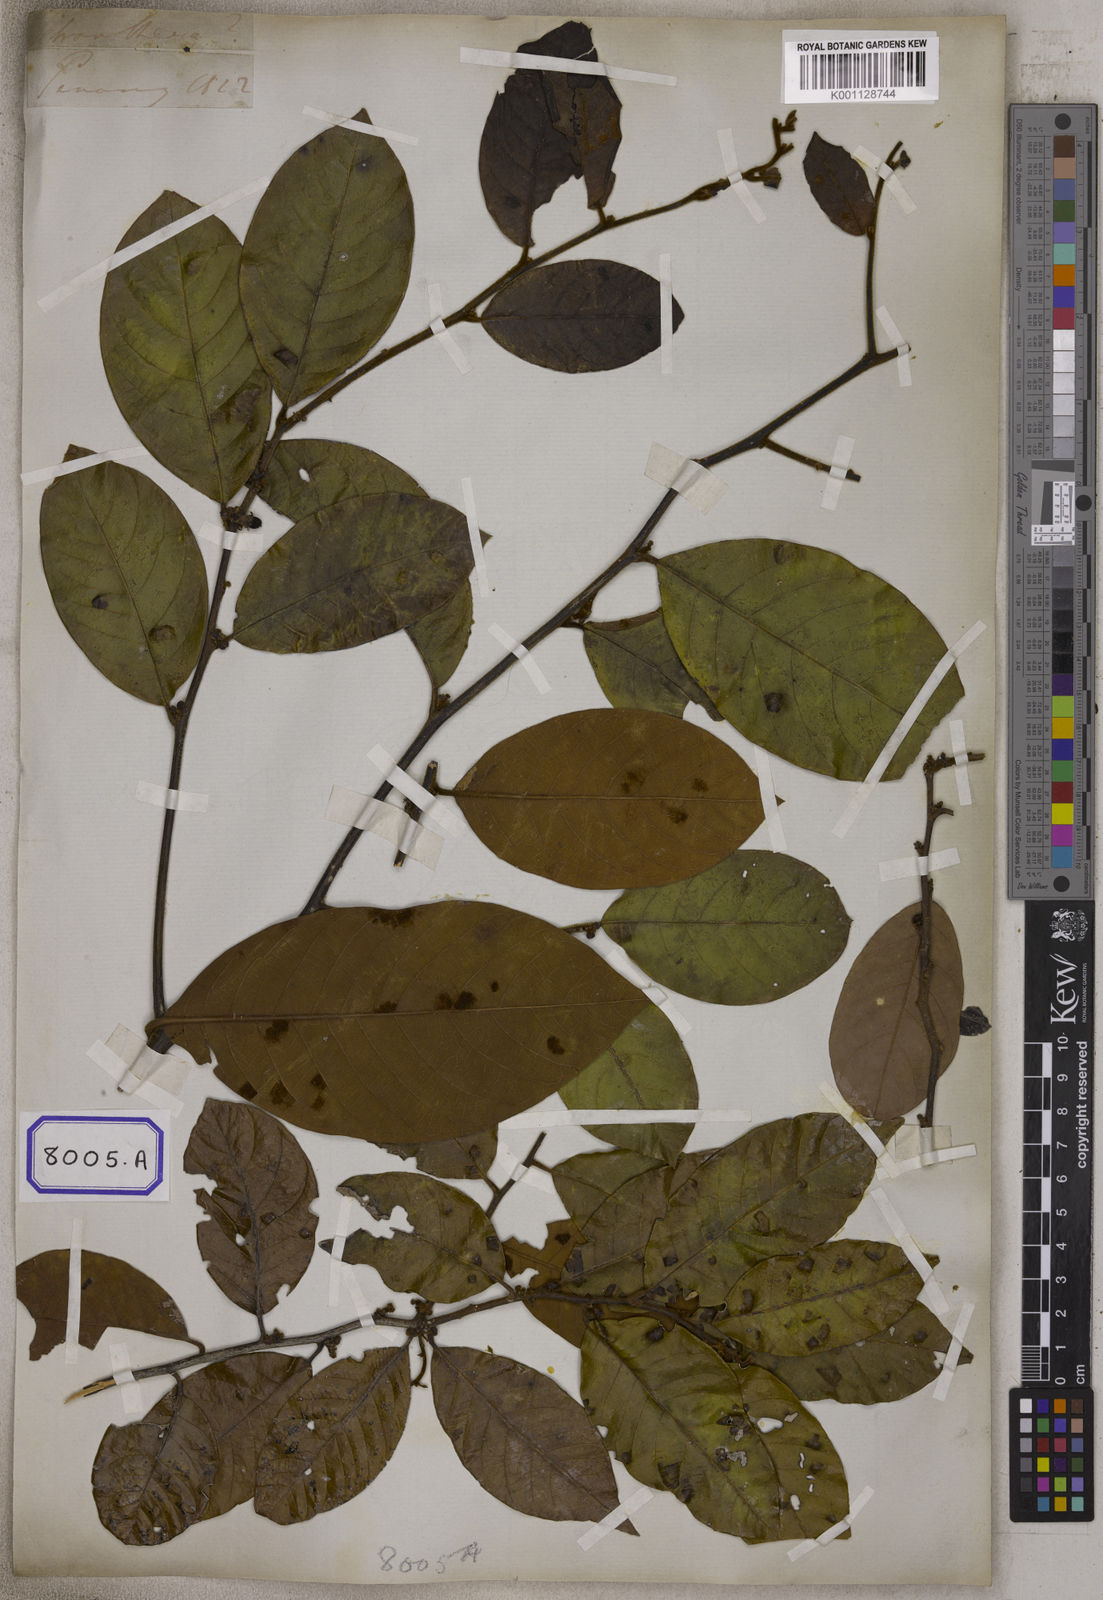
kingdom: Plantae
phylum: Tracheophyta
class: Magnoliopsida
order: Malpighiales
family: Euphorbiaceae
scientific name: Euphorbiaceae
